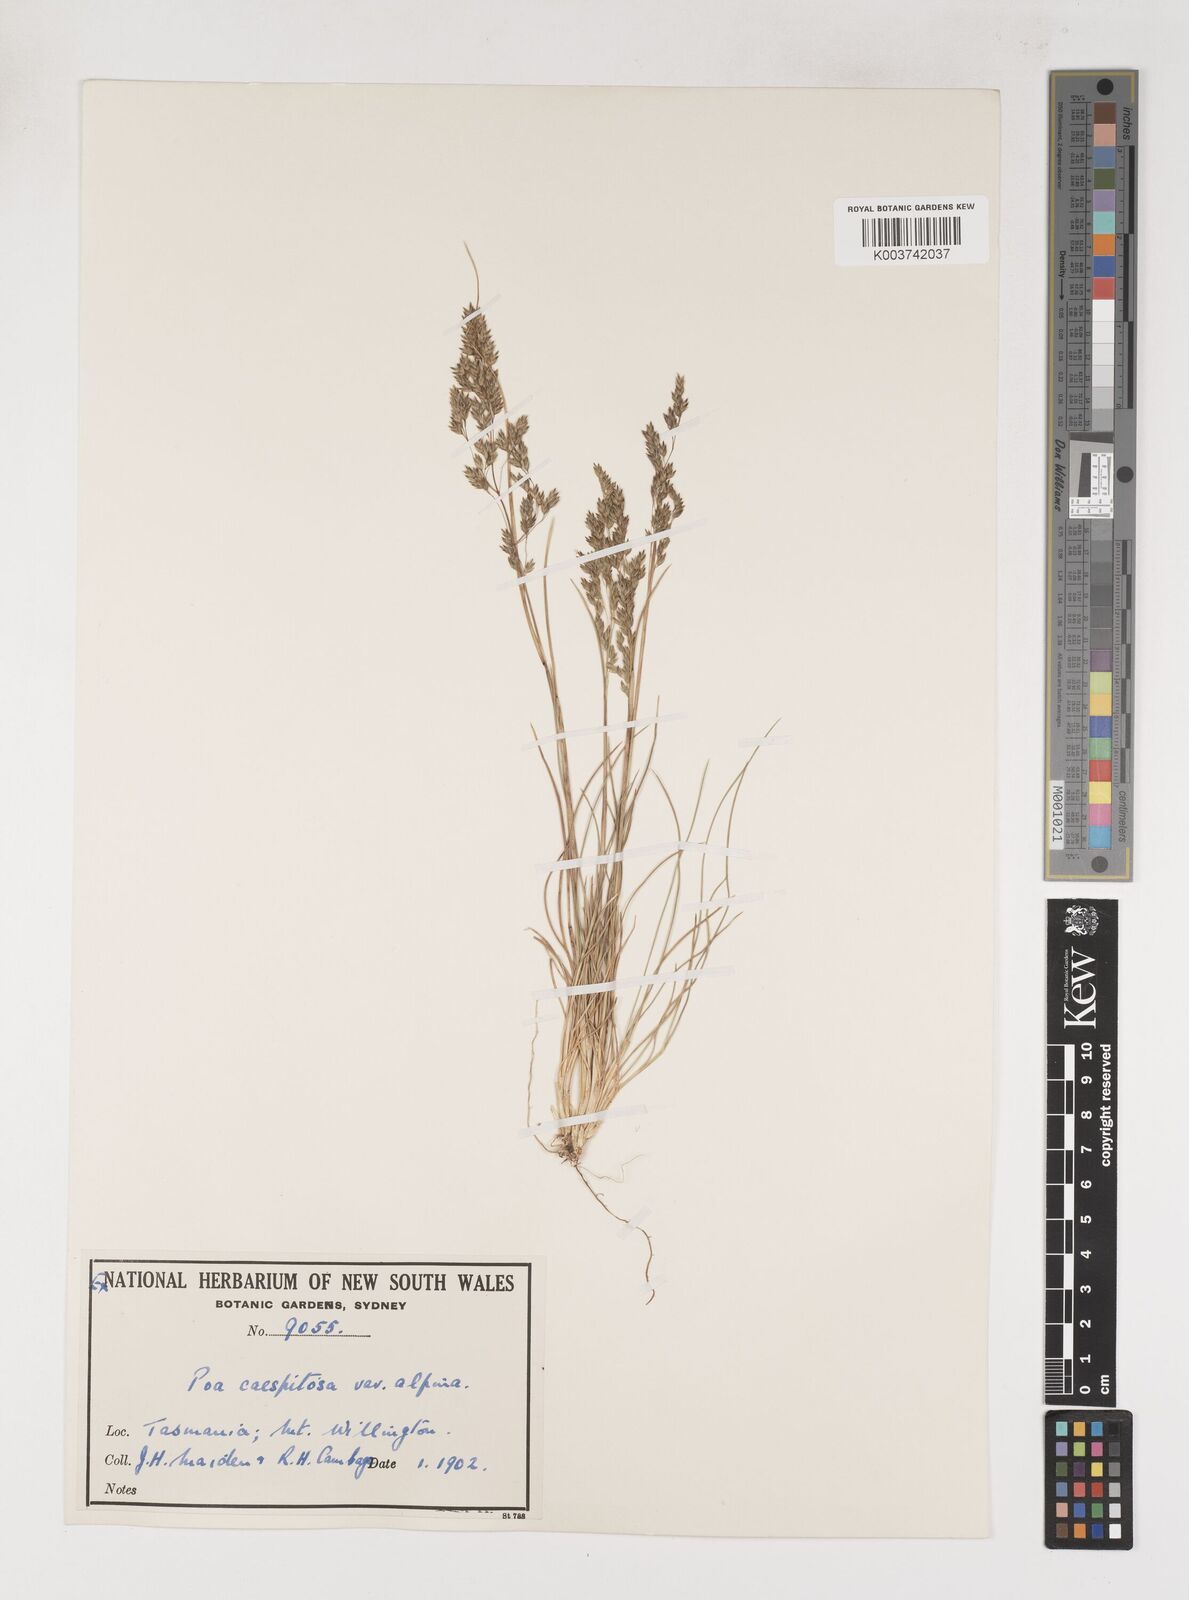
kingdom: Plantae
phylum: Tracheophyta
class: Liliopsida
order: Poales
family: Poaceae
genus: Poa
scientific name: Poa gunnii
